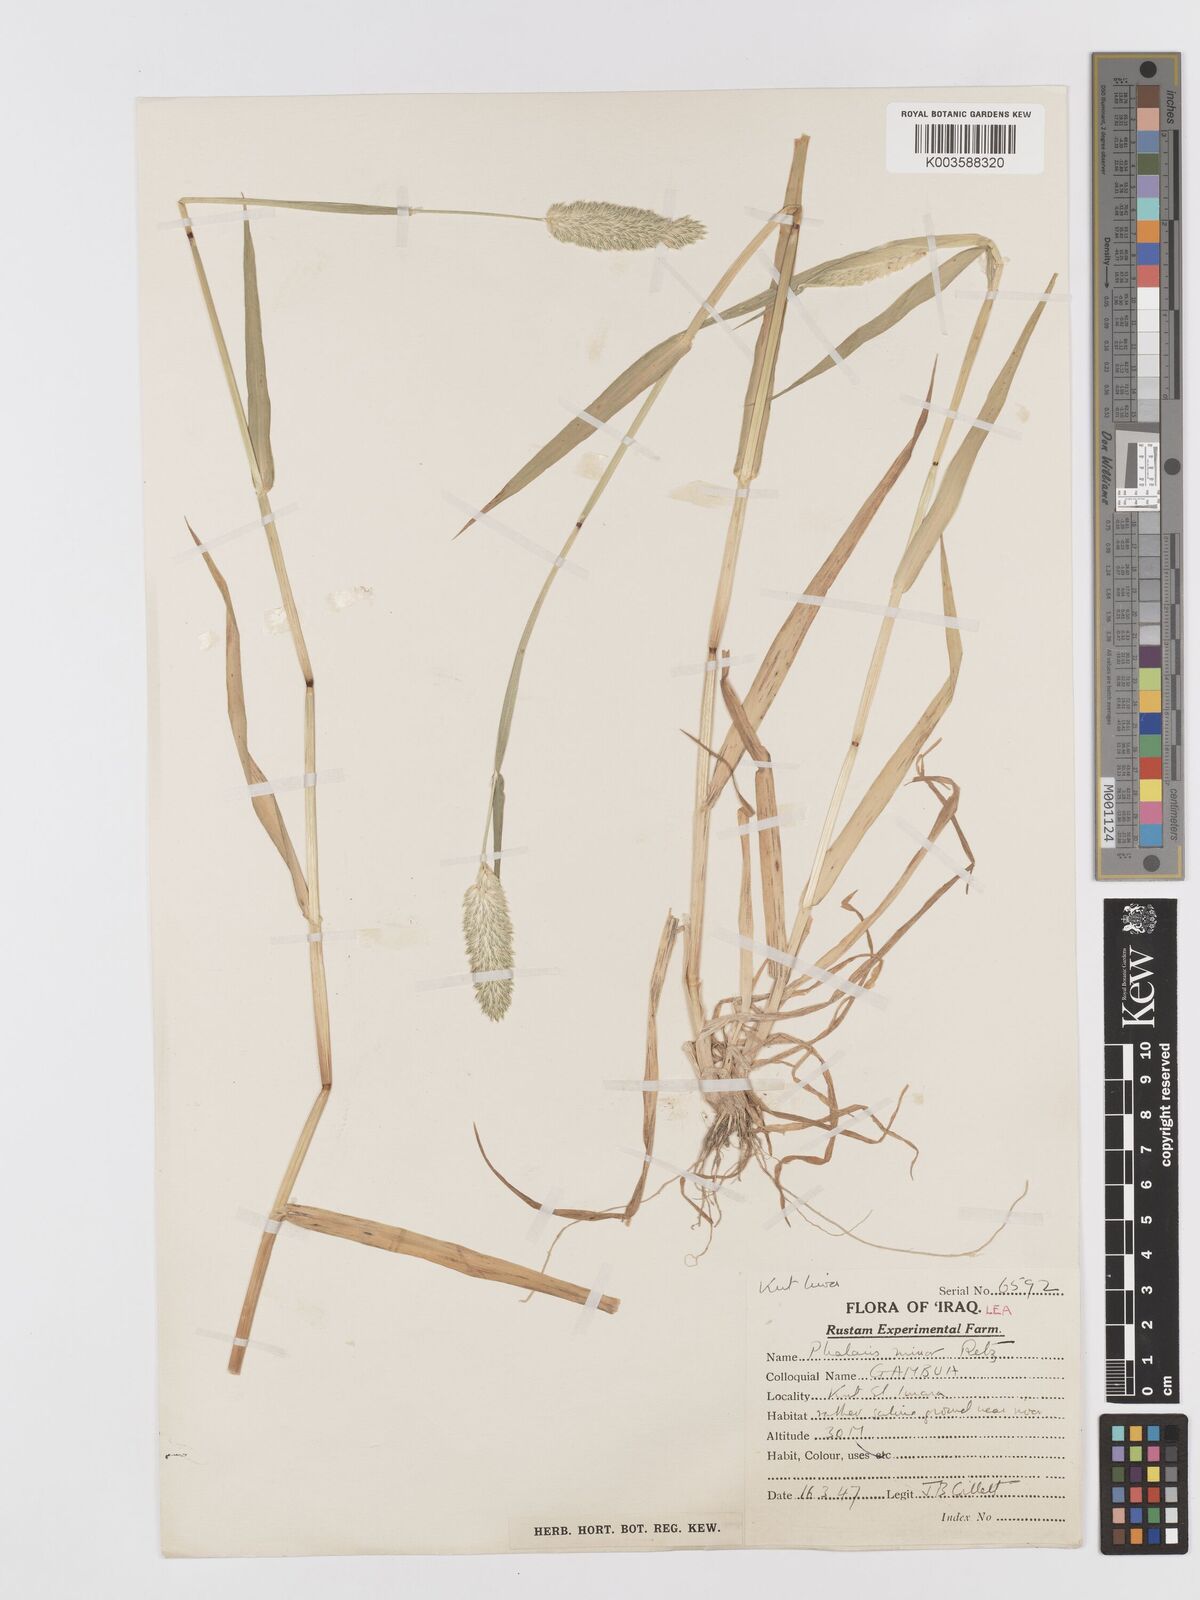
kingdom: Plantae
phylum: Tracheophyta
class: Liliopsida
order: Poales
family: Poaceae
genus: Phalaris
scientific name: Phalaris minor
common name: Littleseed canarygrass
